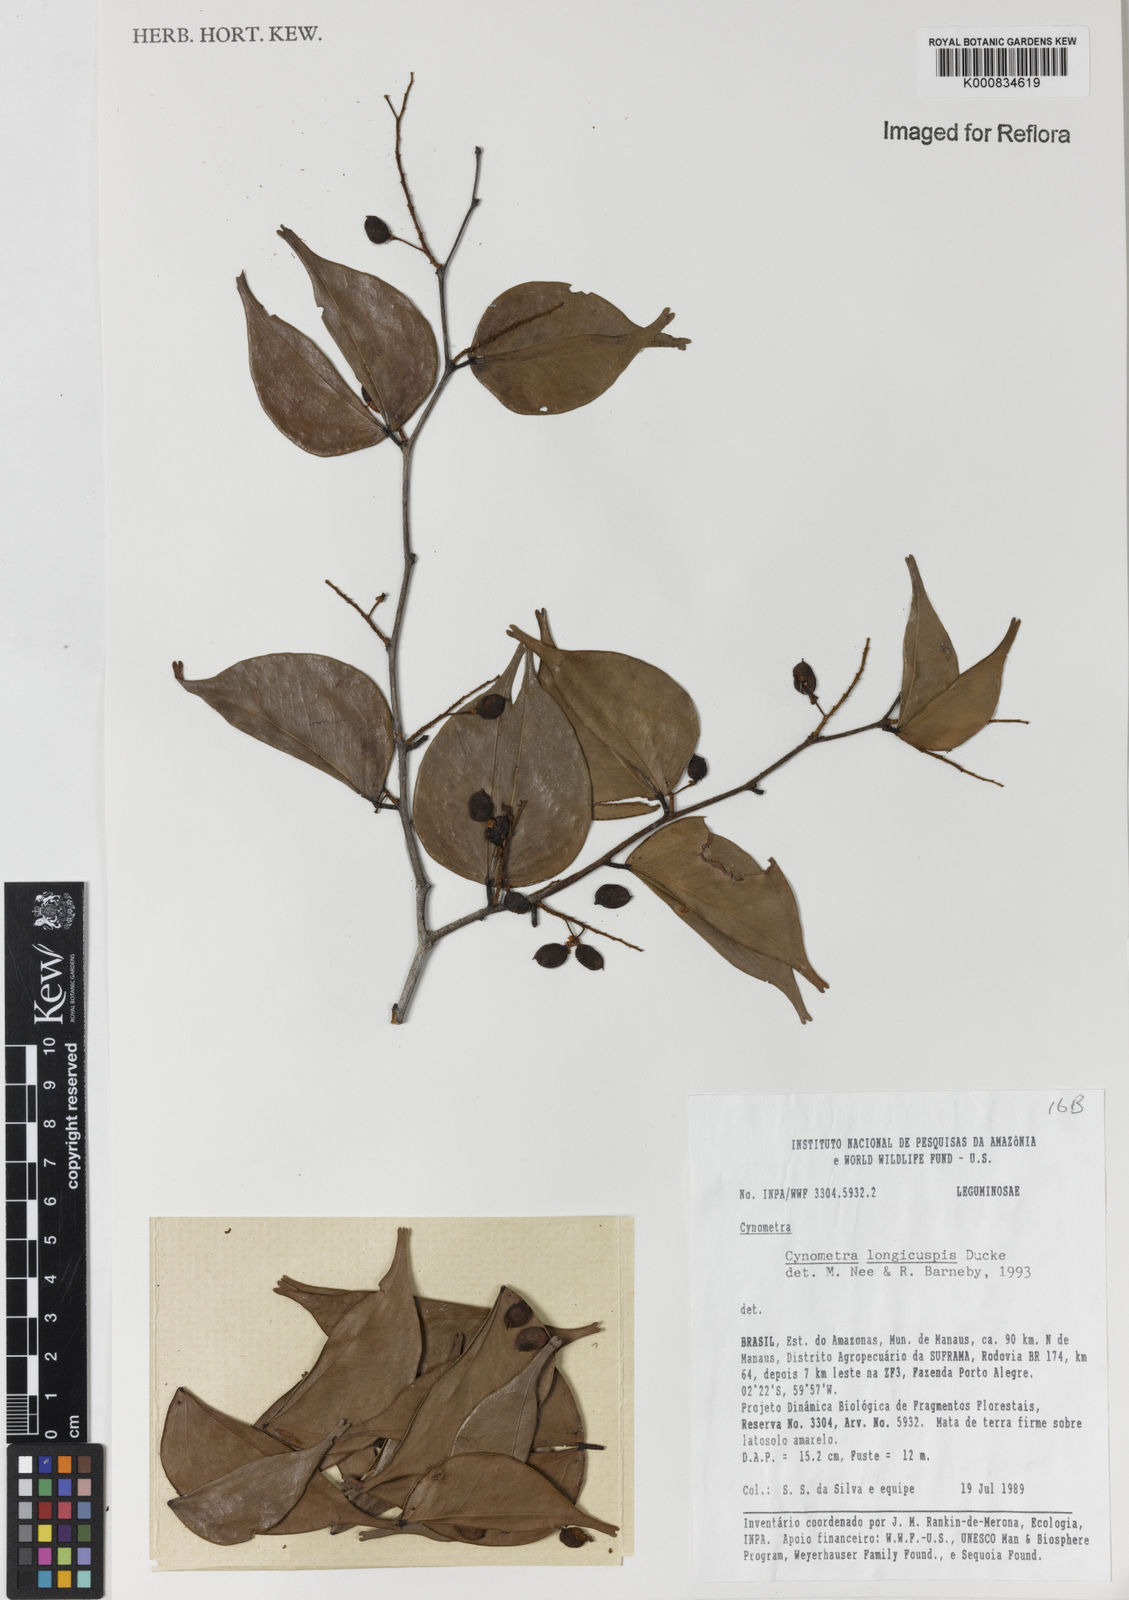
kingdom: Plantae
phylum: Tracheophyta
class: Magnoliopsida
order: Fabales
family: Fabaceae
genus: Cynometra
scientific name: Cynometra longicuspis
